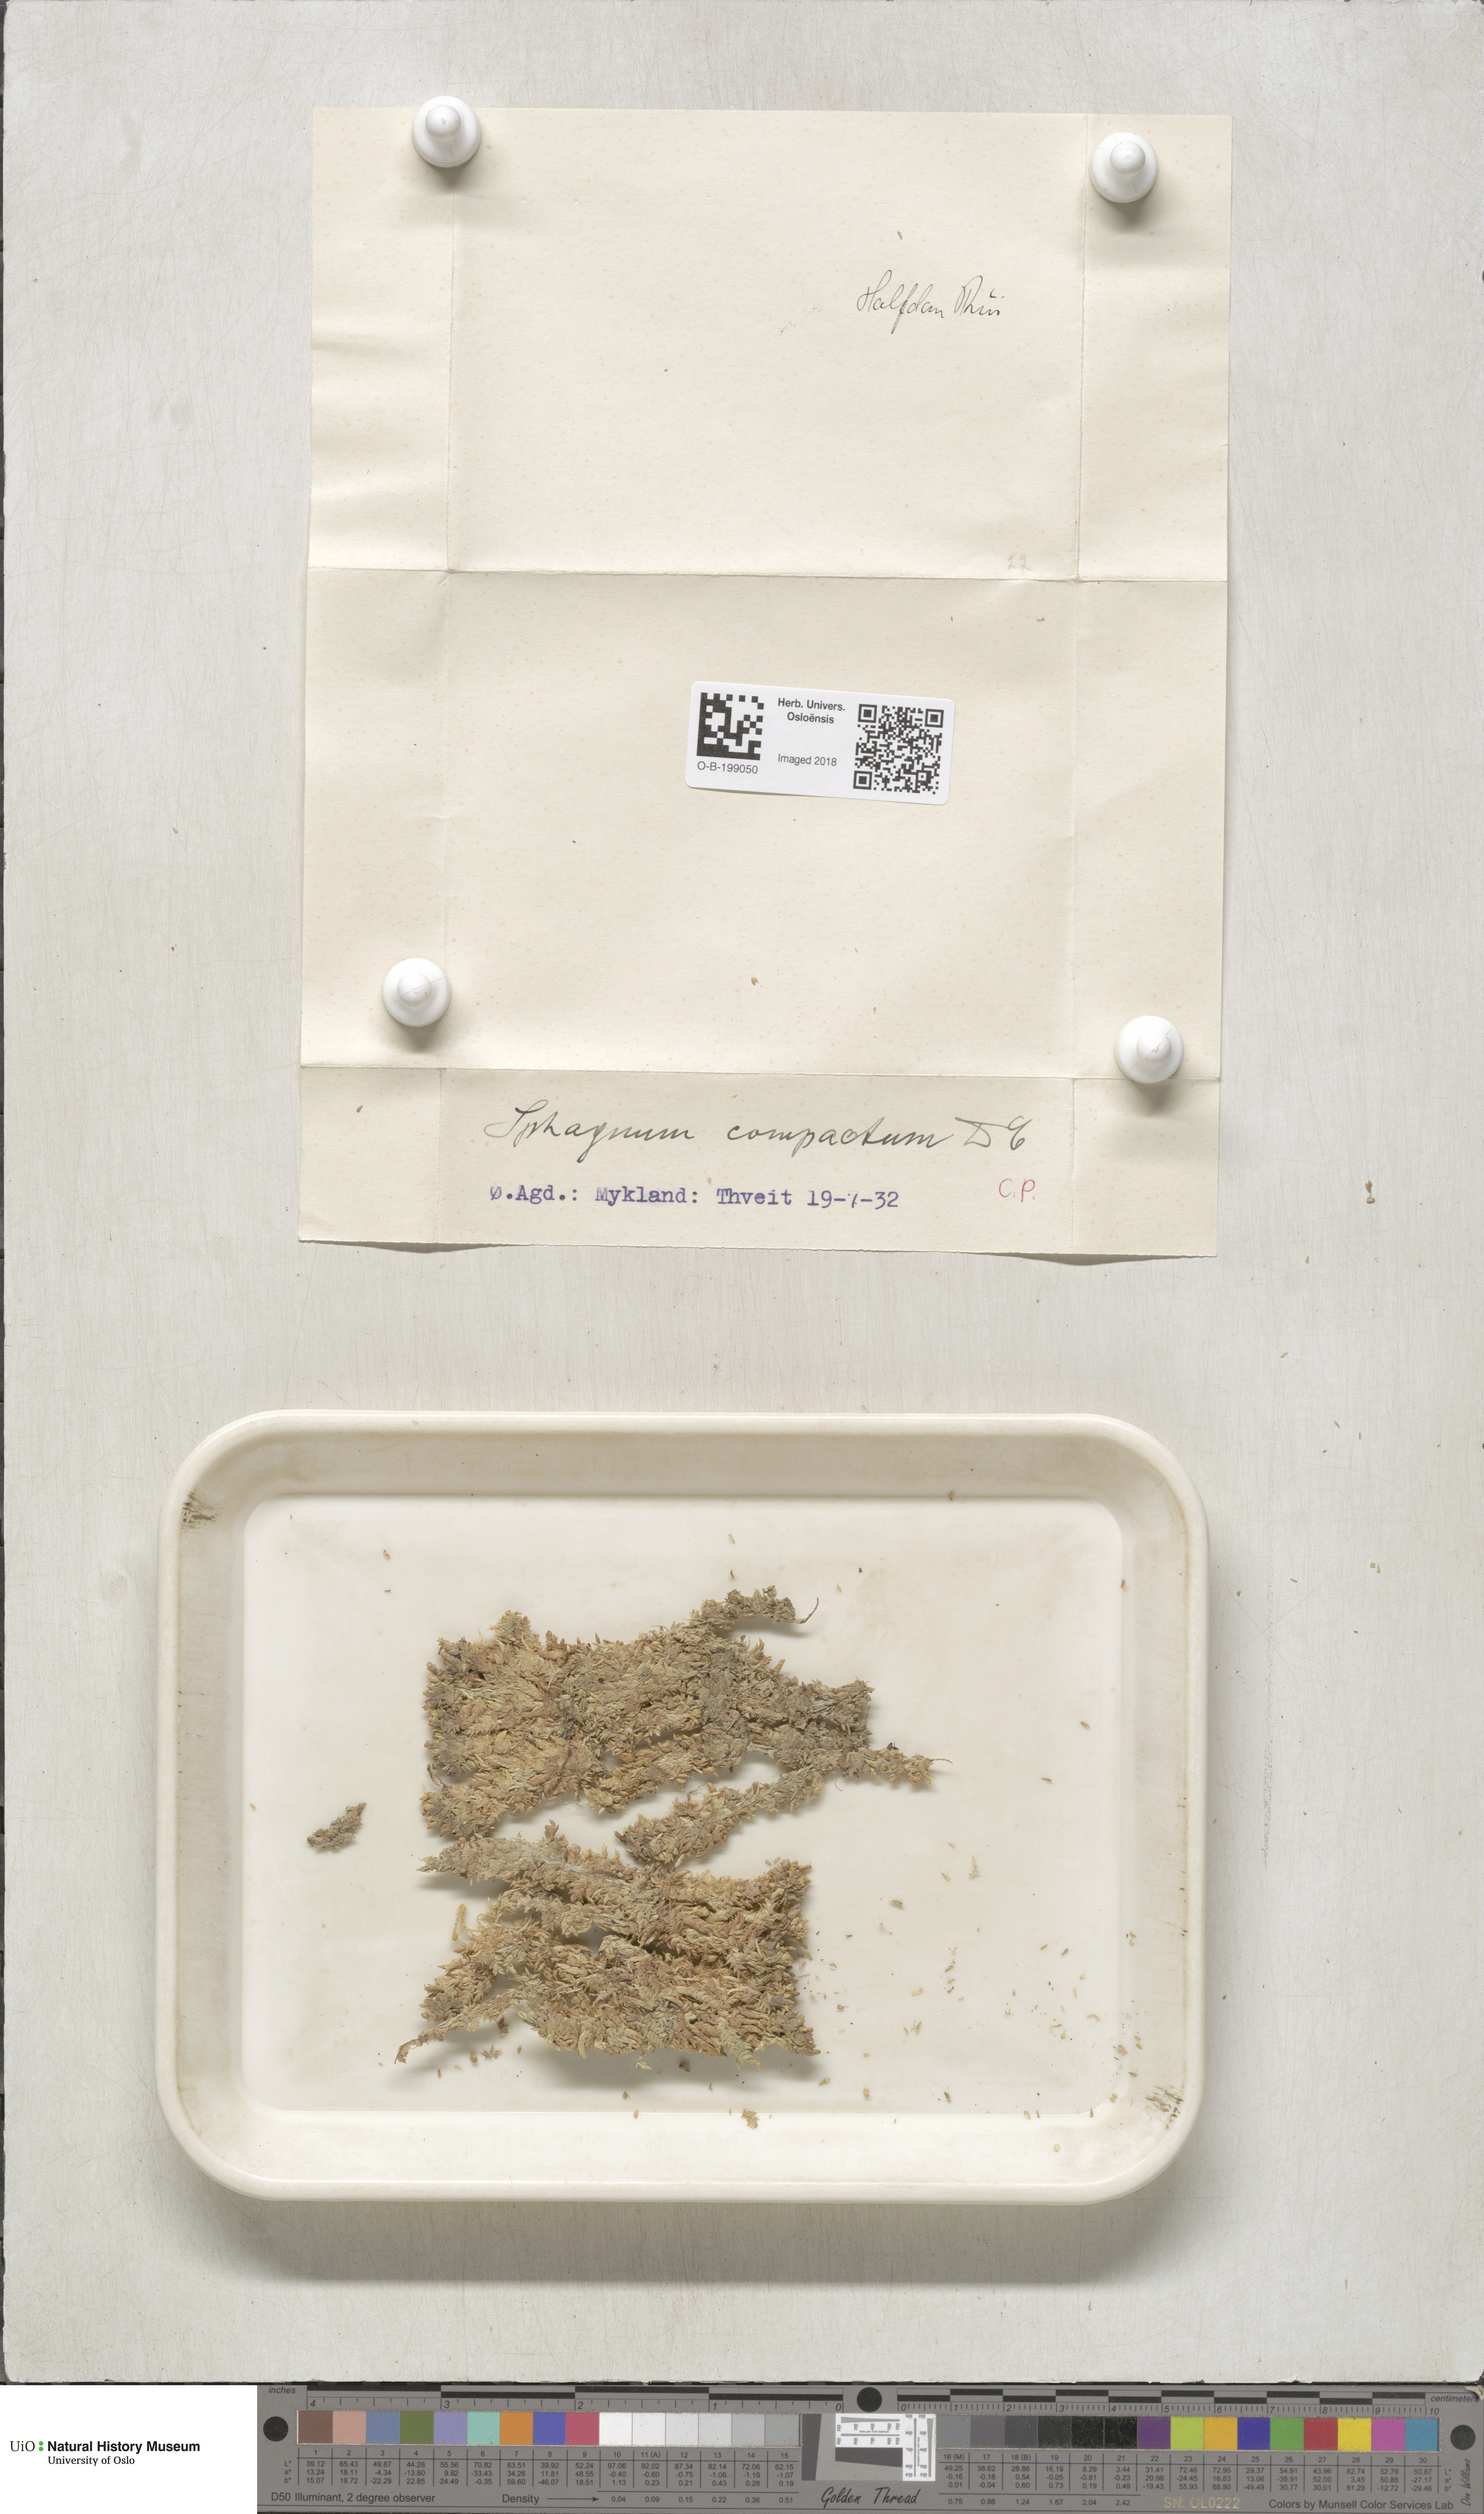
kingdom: Plantae
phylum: Bryophyta
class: Sphagnopsida
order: Sphagnales
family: Sphagnaceae
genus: Sphagnum
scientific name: Sphagnum compactum
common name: Compact peat moss
